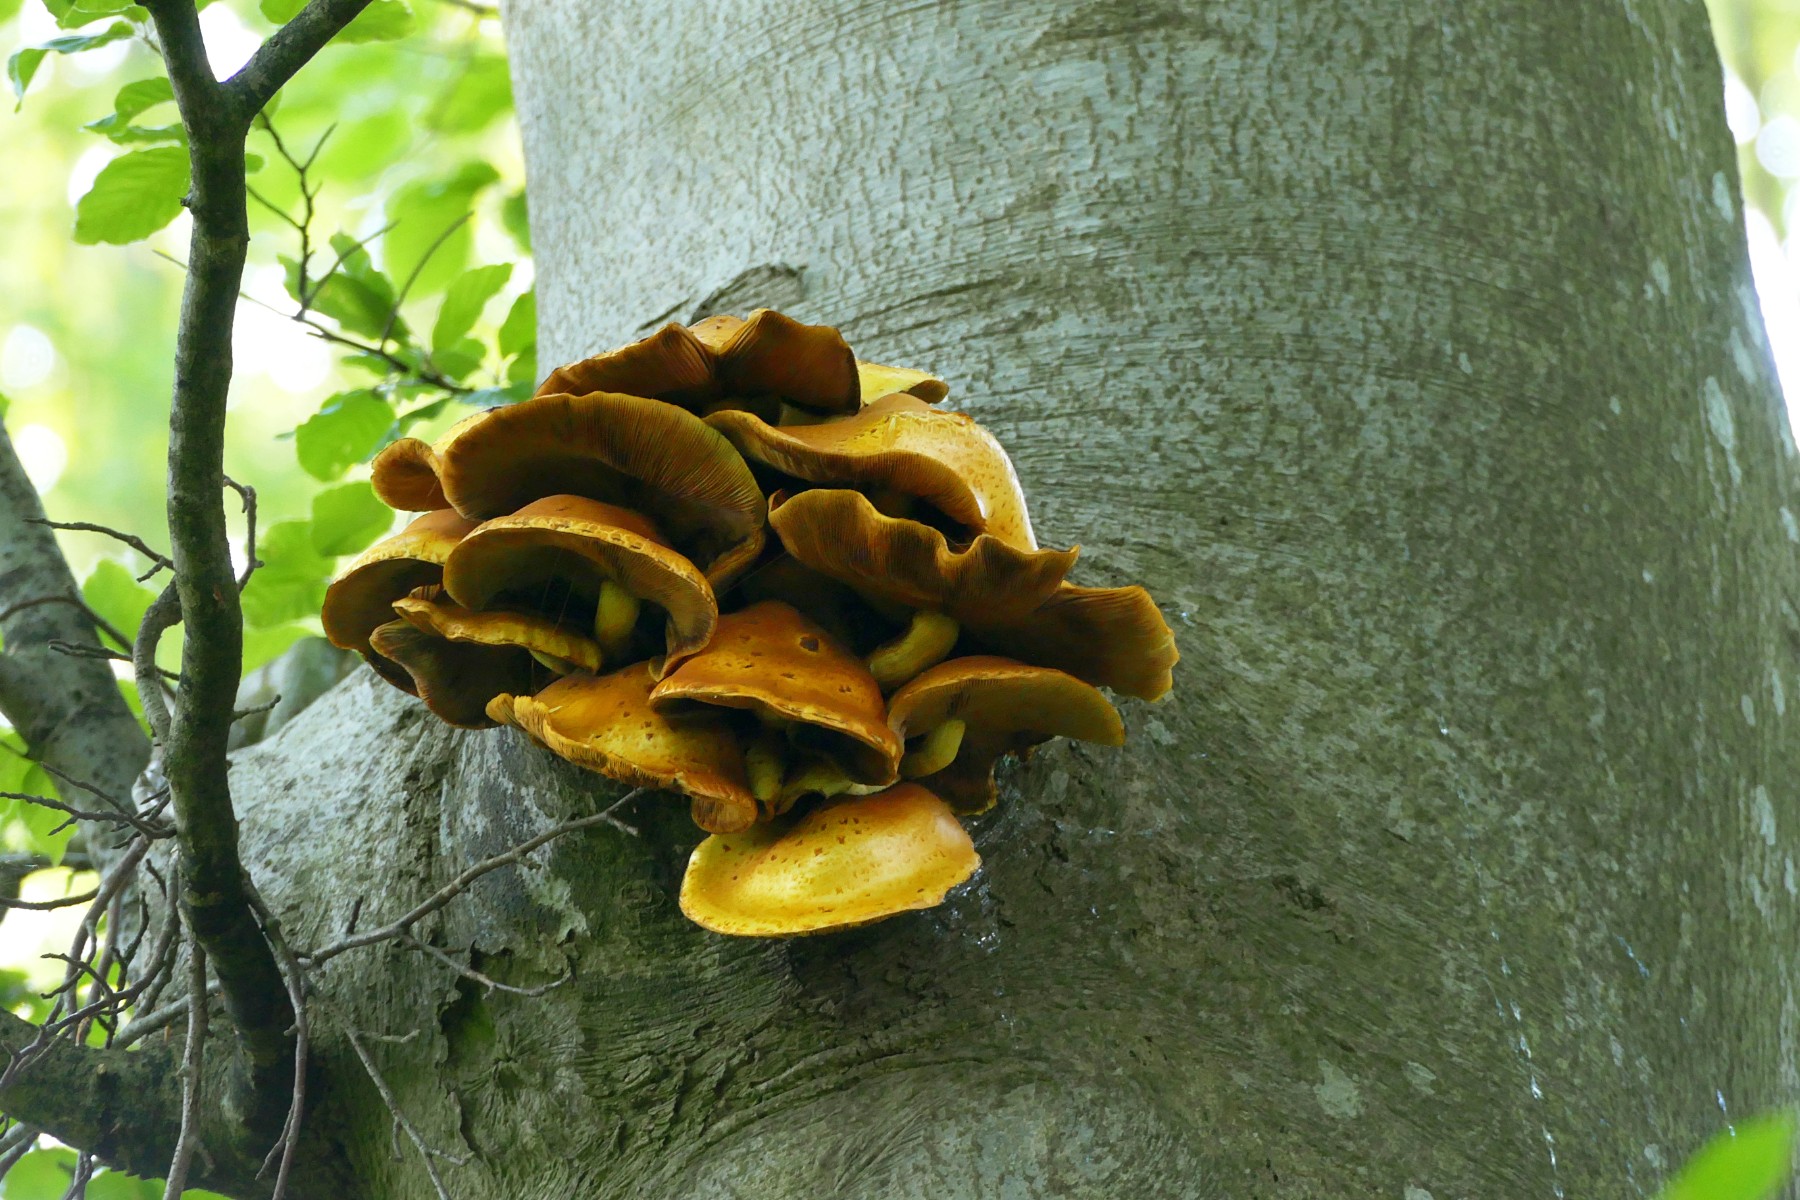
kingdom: Fungi
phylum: Basidiomycota
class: Agaricomycetes
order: Agaricales
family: Strophariaceae
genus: Pholiota
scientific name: Pholiota adiposa
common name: højtsiddende skælhat
